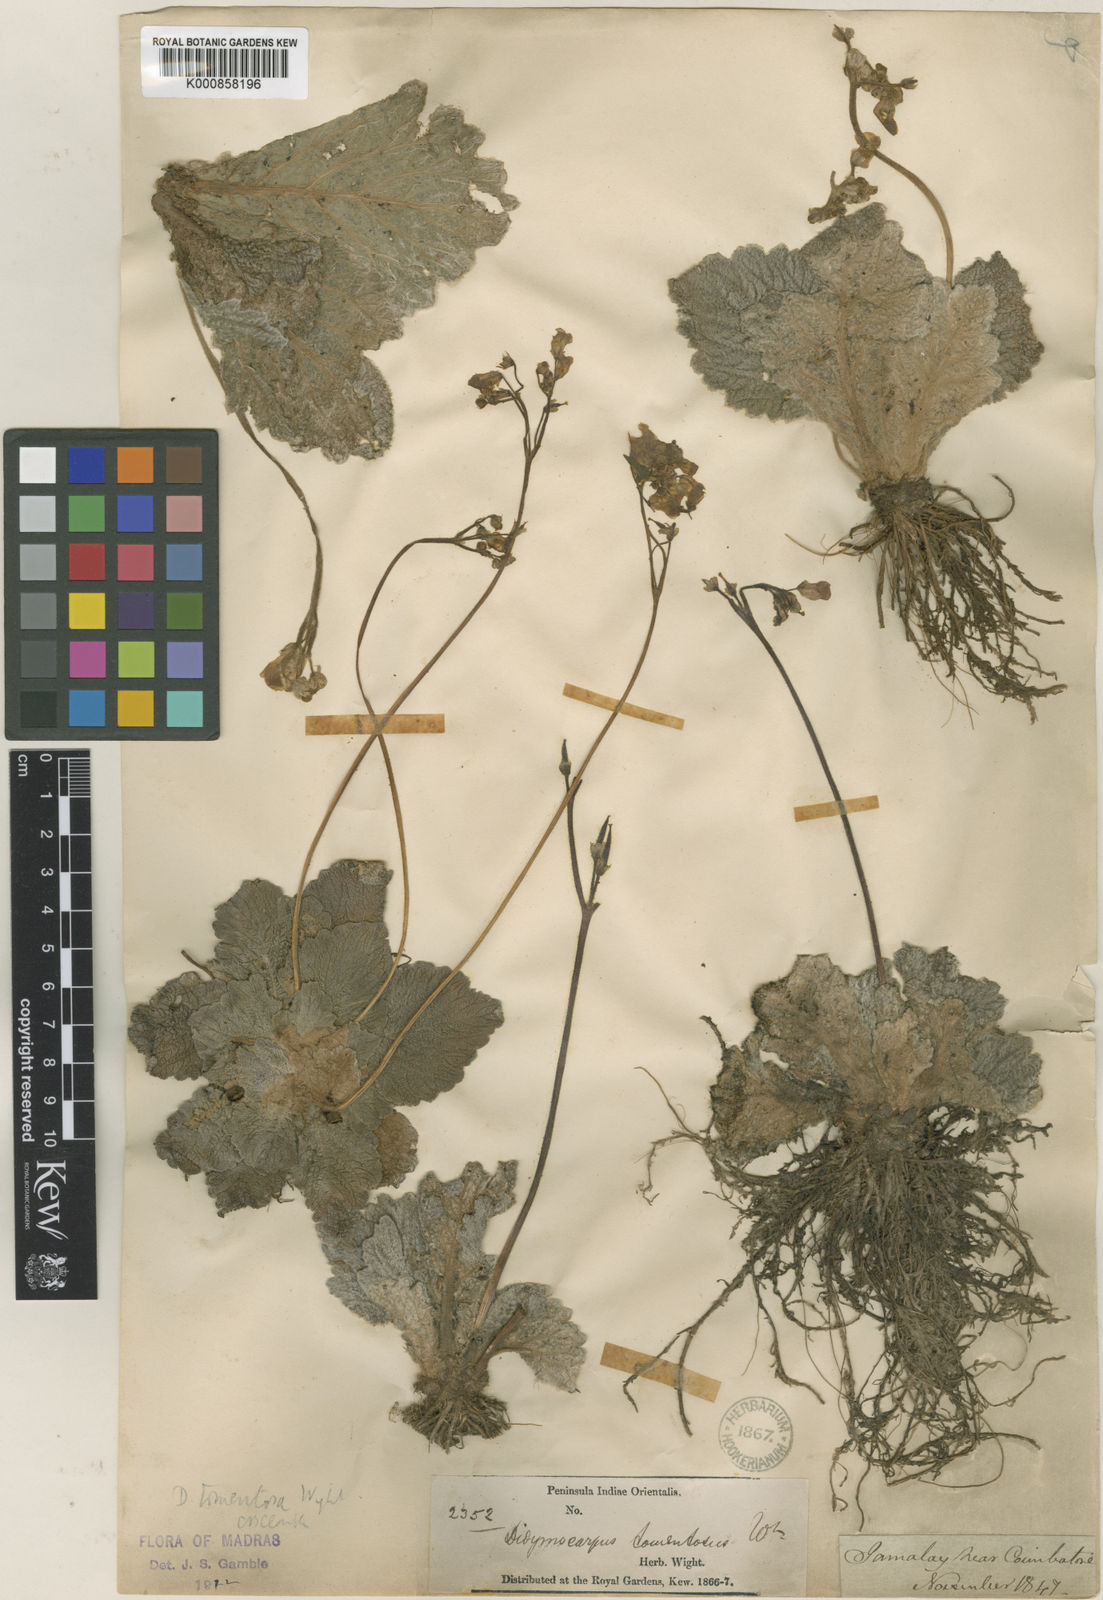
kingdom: Plantae
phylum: Tracheophyta
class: Magnoliopsida
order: Lamiales
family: Gesneriaceae
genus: Henckelia
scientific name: Henckelia incana
